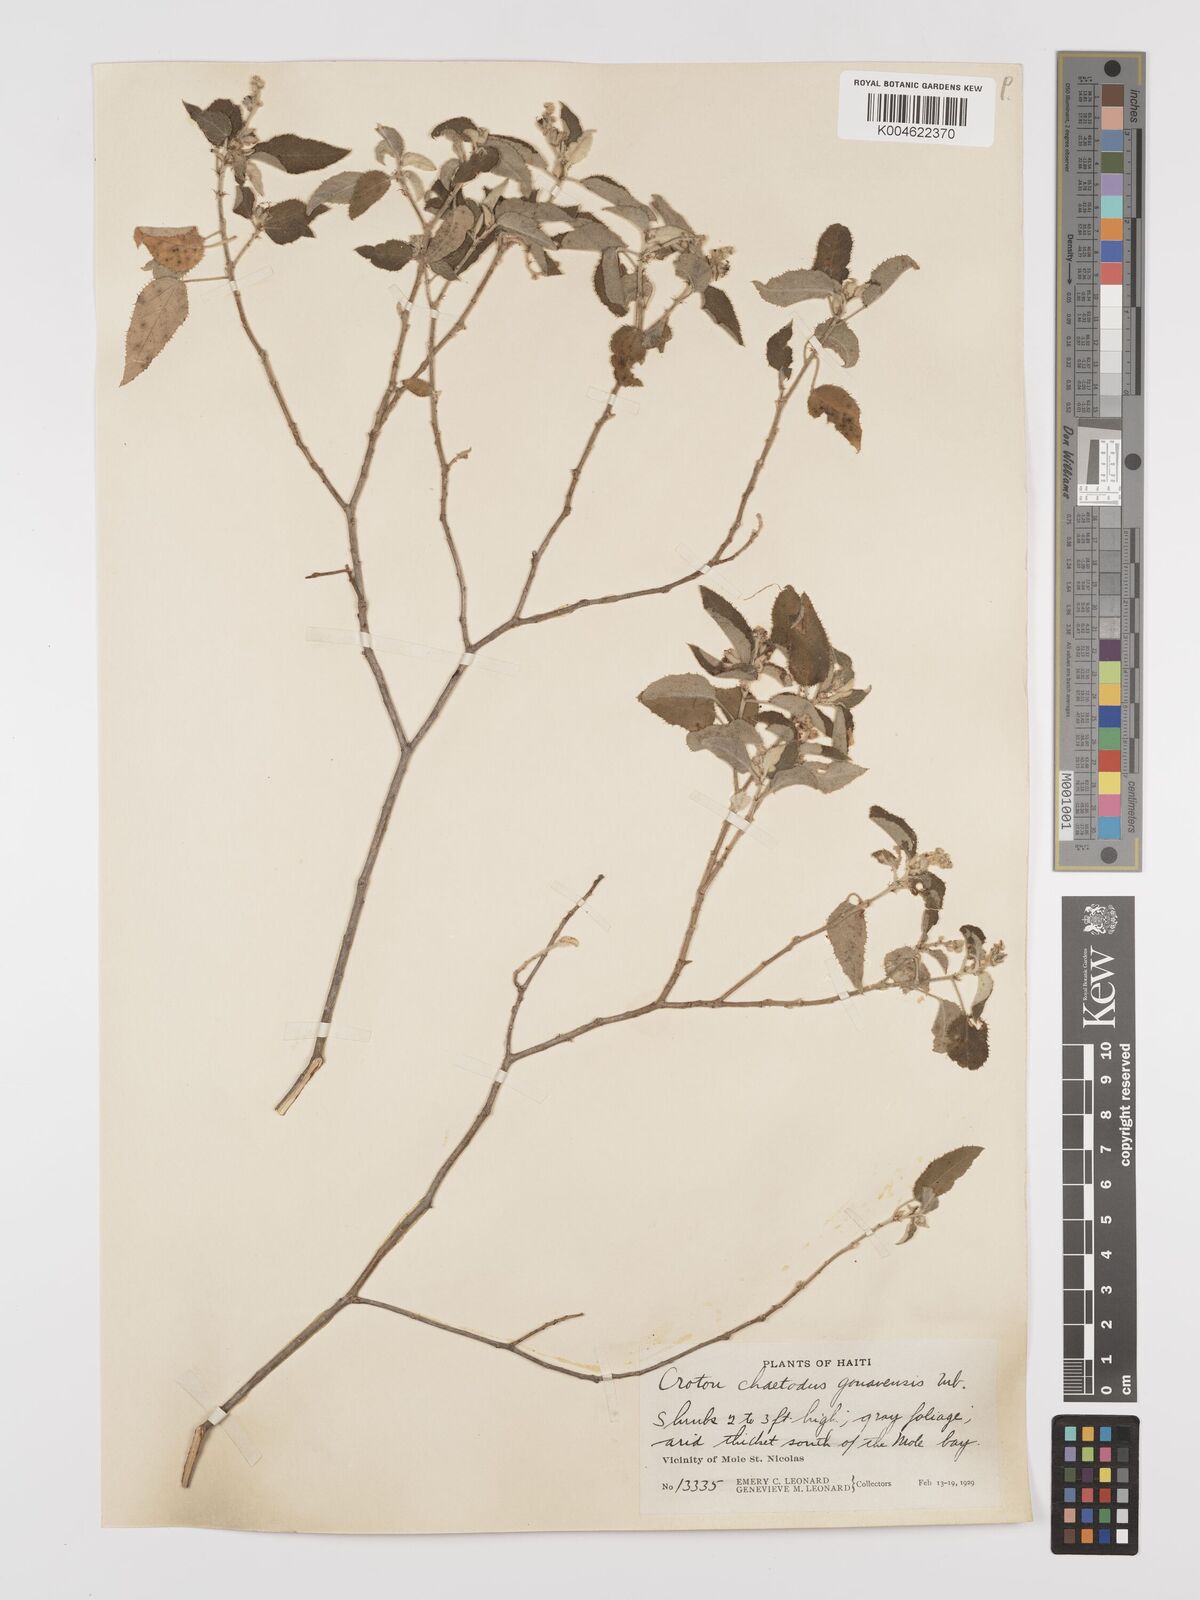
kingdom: Plantae
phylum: Tracheophyta
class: Magnoliopsida
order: Malpighiales
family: Euphorbiaceae
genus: Croton
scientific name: Croton ciliatoglandulifer
